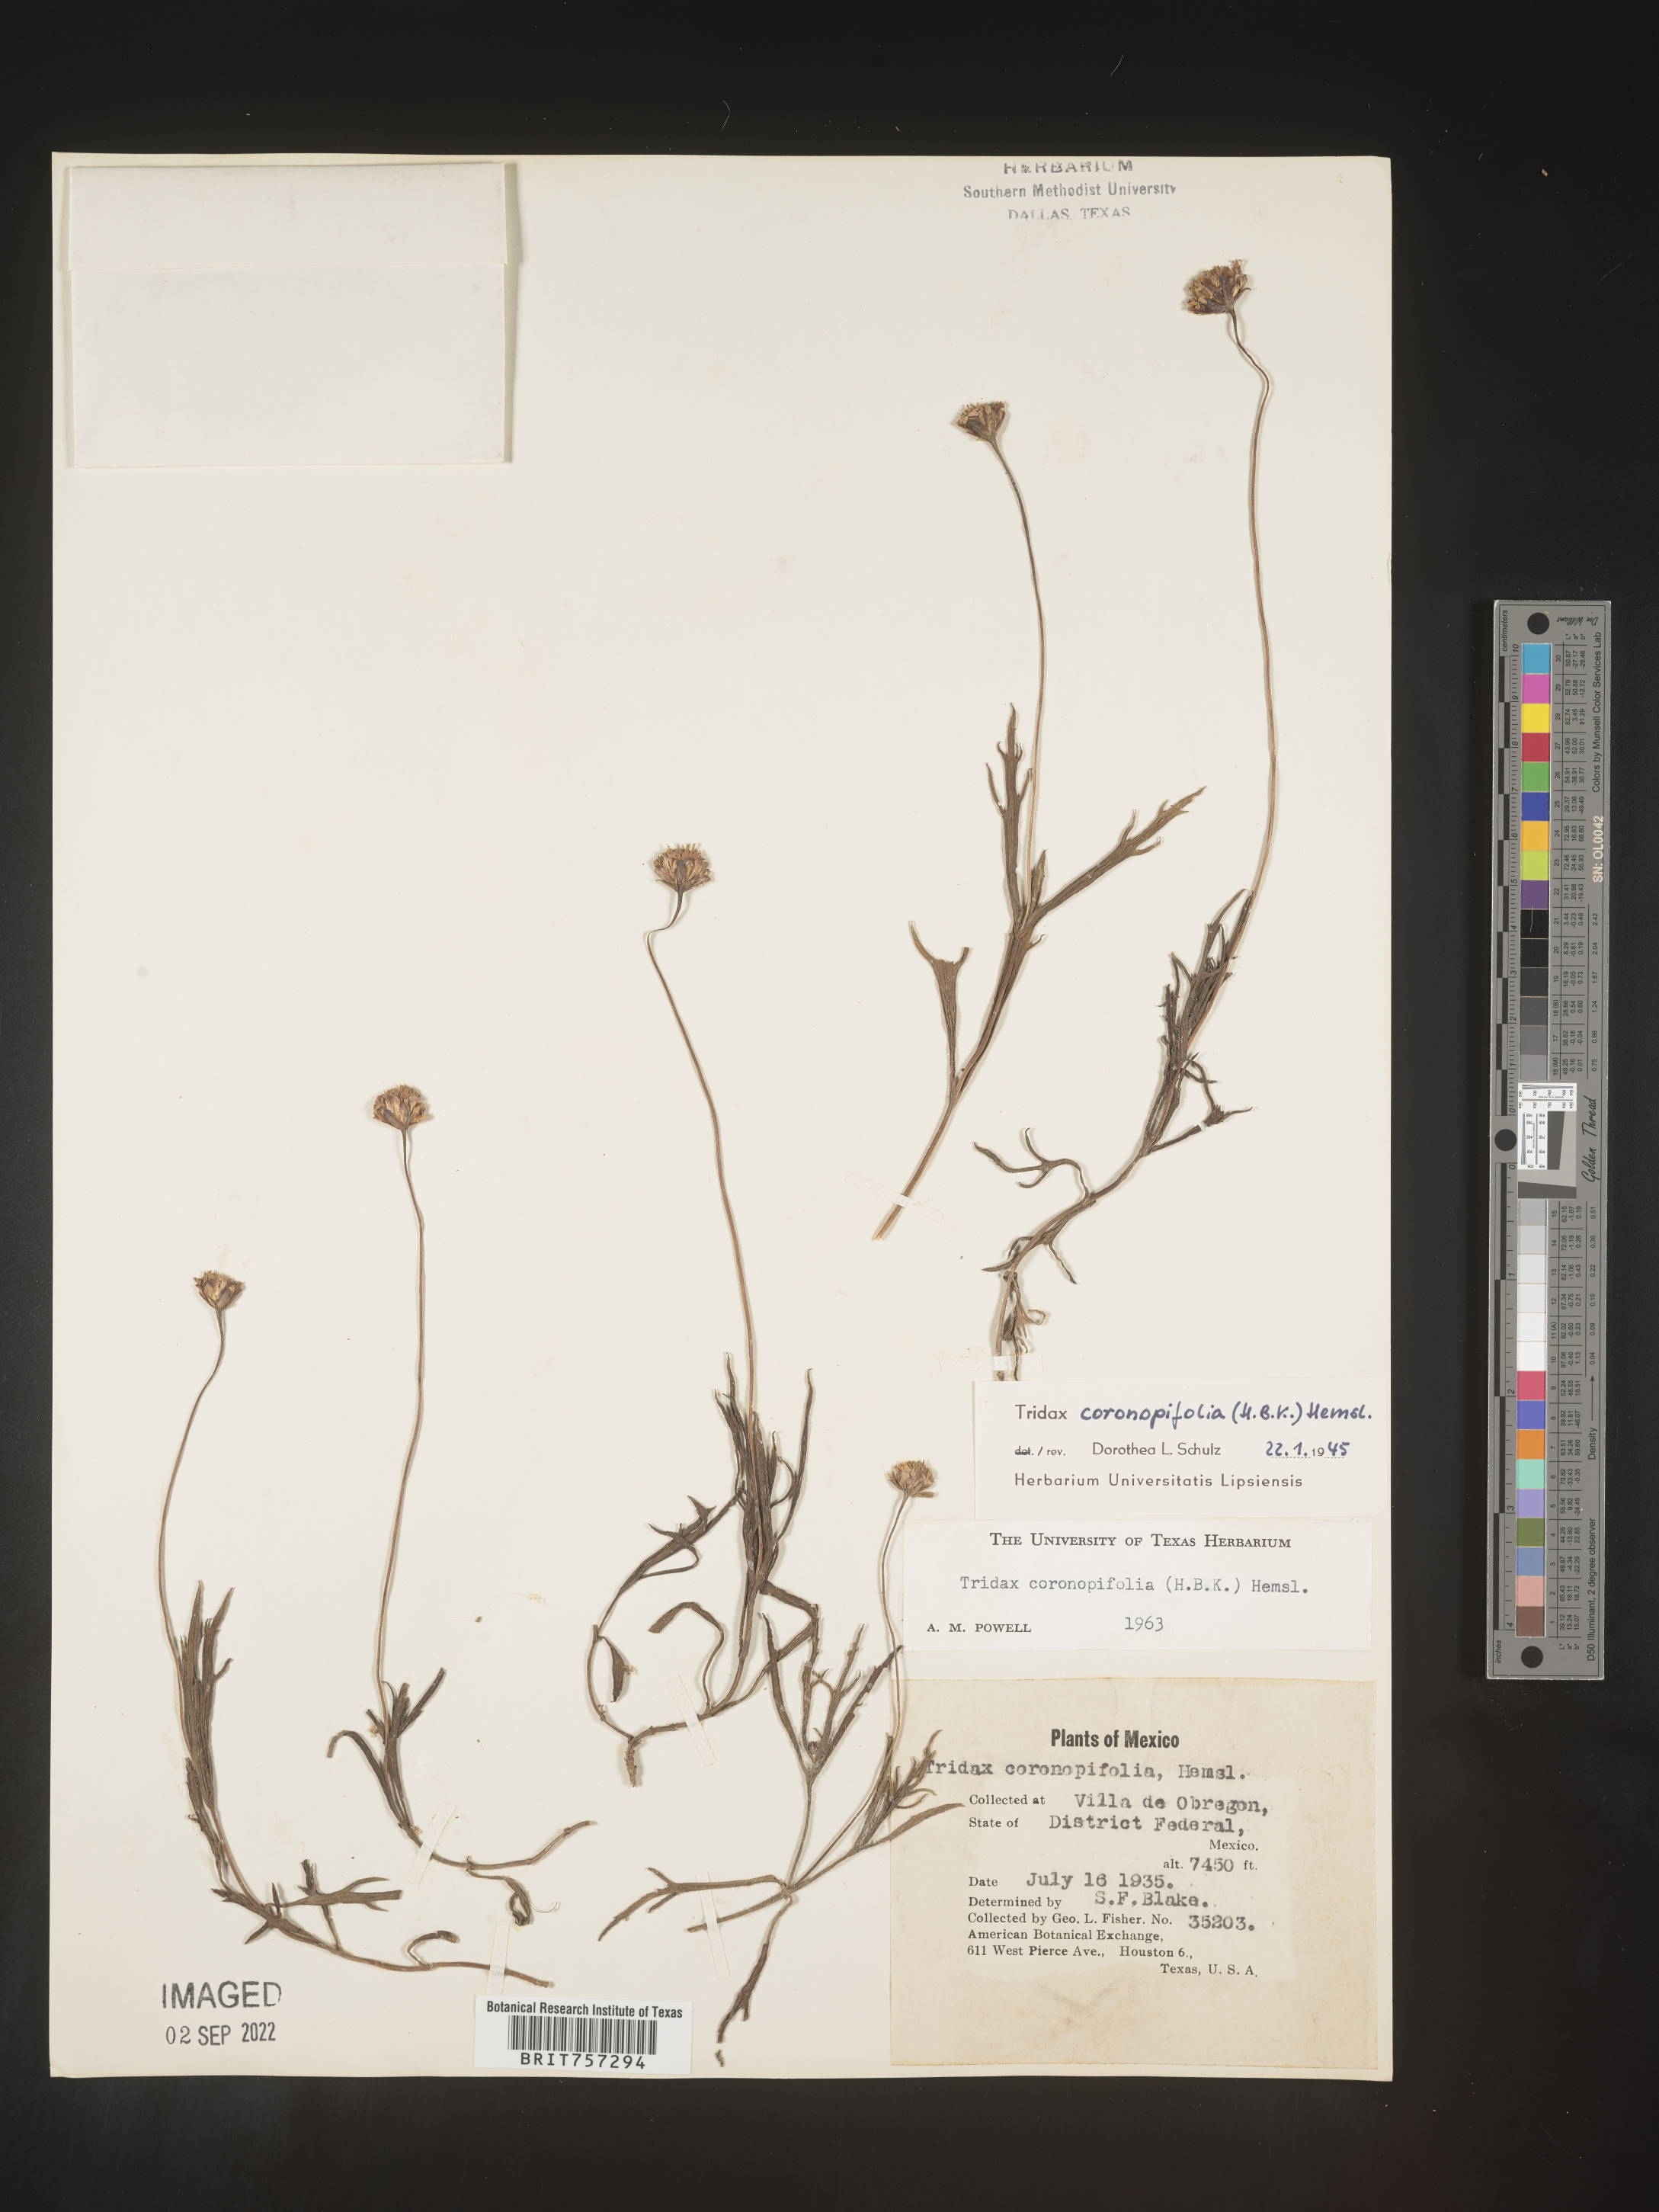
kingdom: Plantae
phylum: Tracheophyta
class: Magnoliopsida
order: Asterales
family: Asteraceae
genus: Tridax
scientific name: Tridax
